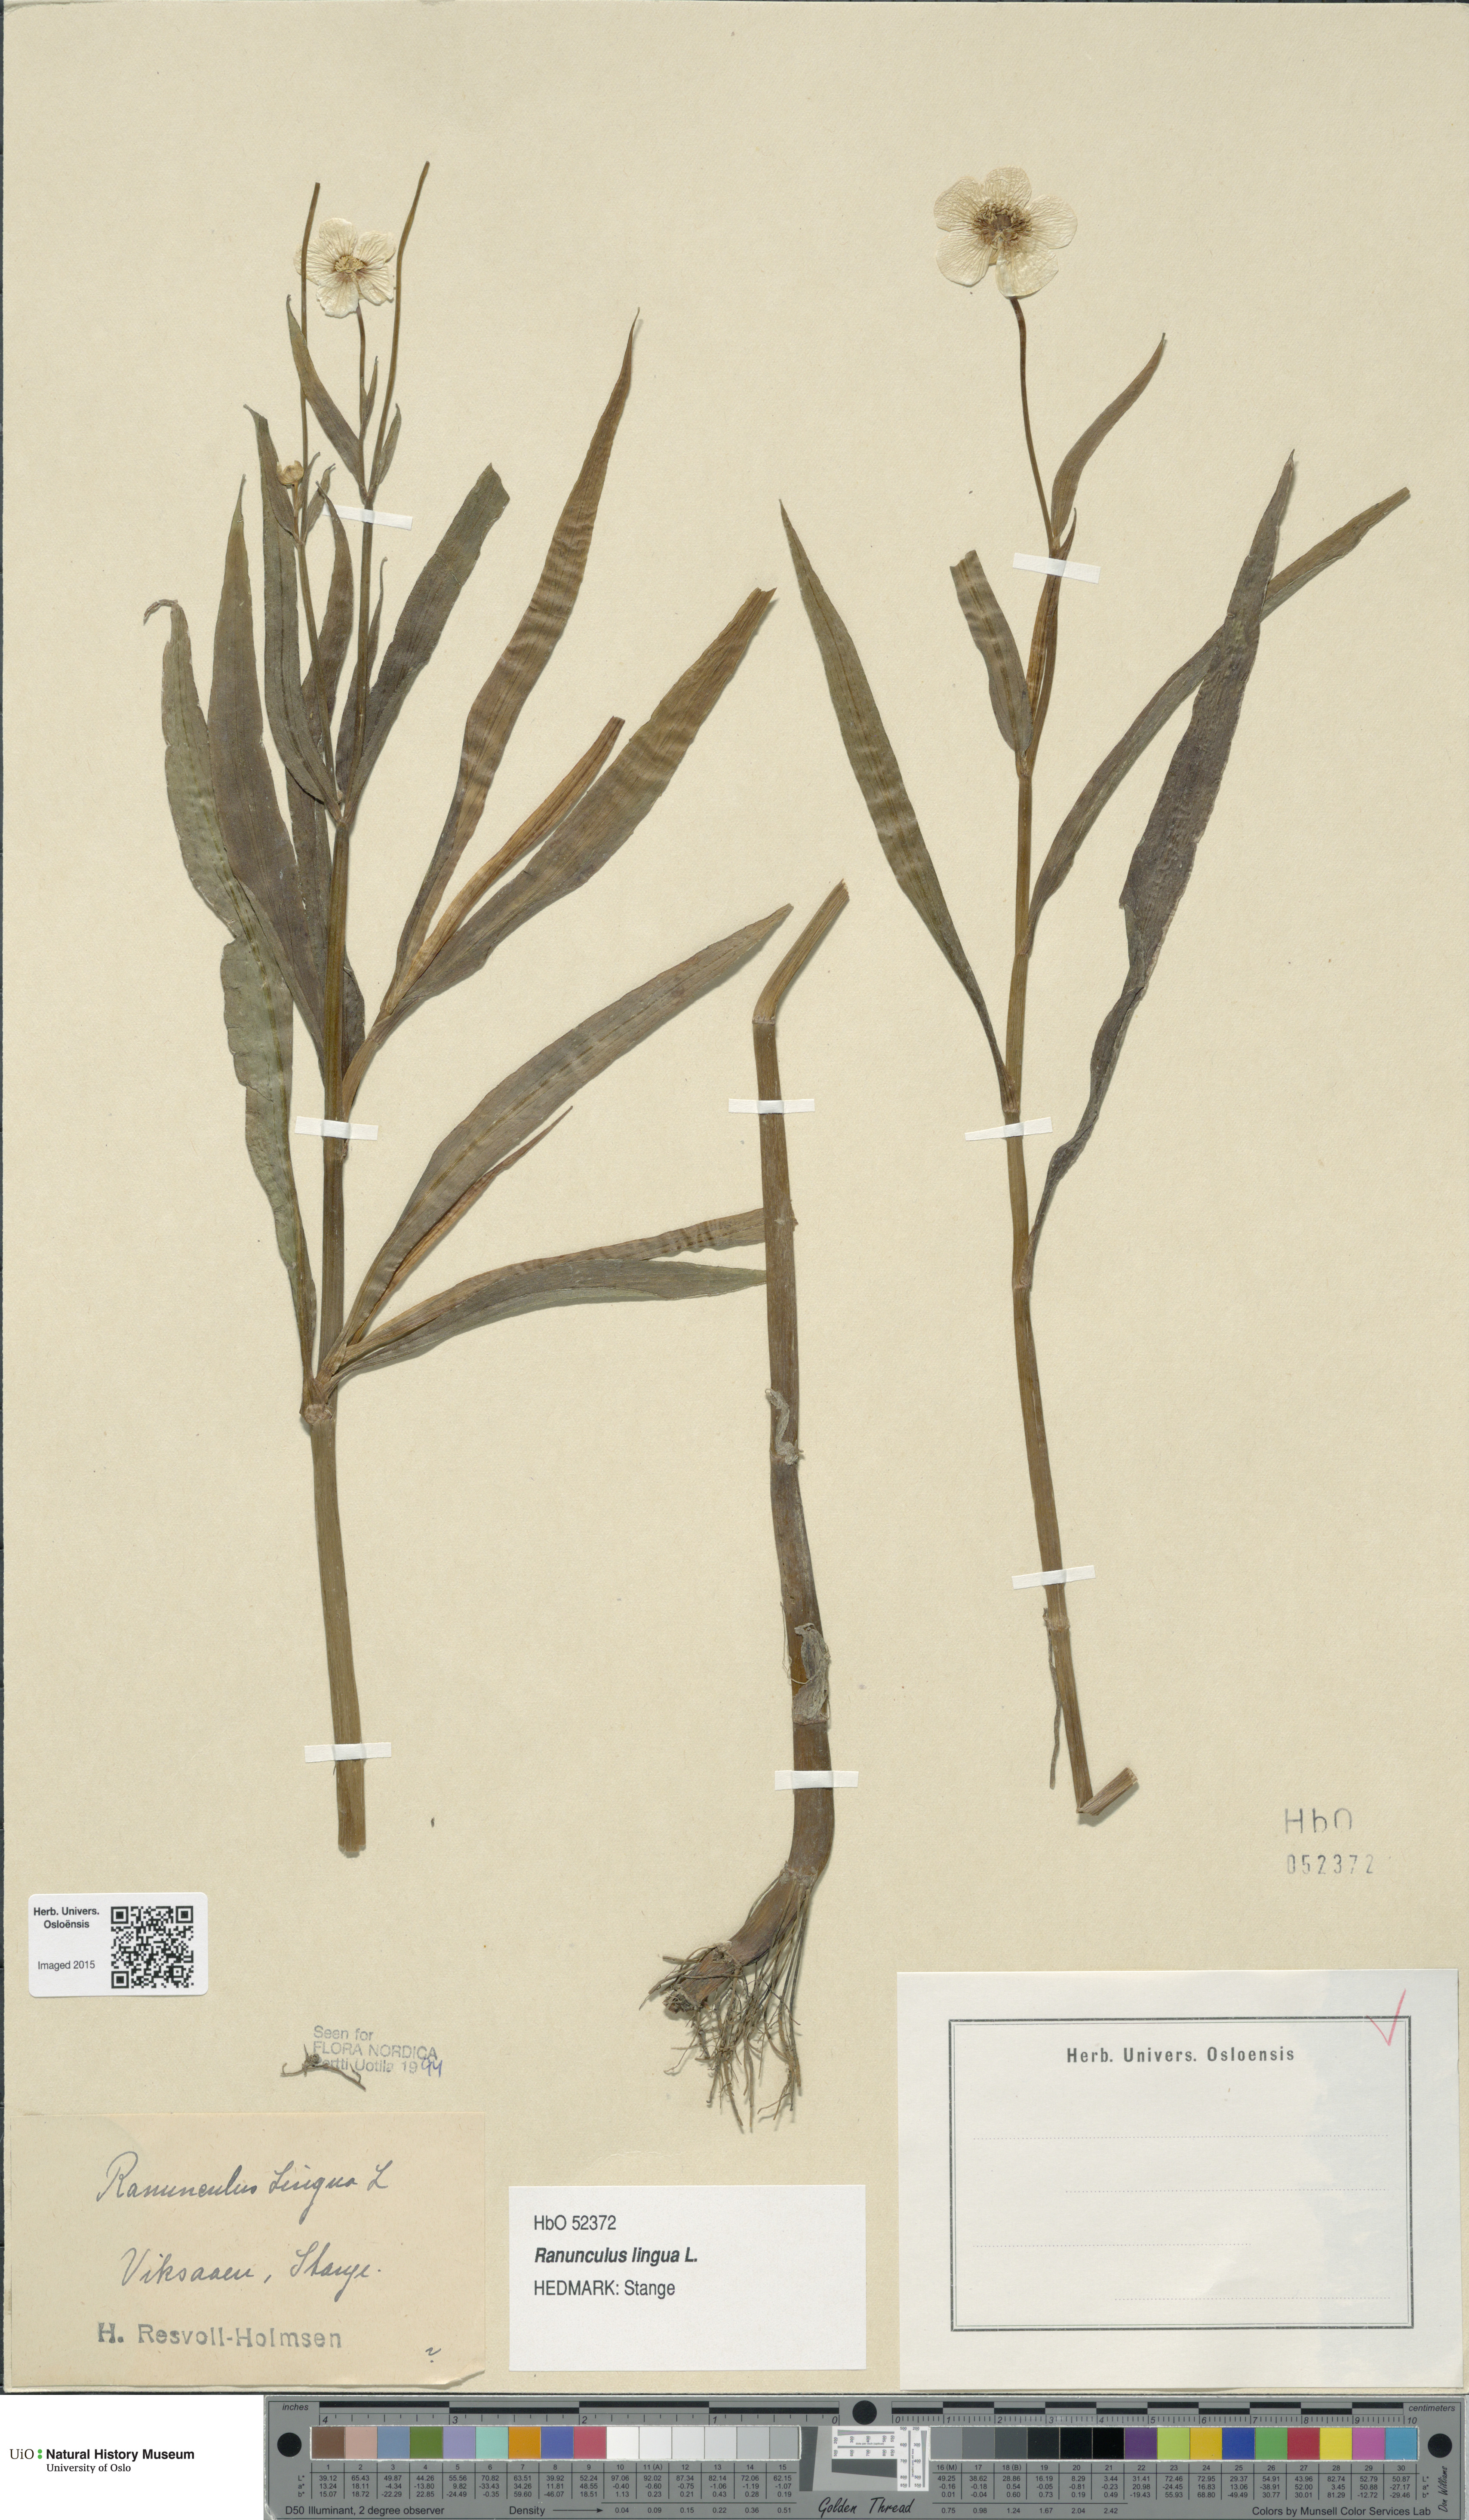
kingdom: Plantae
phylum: Tracheophyta
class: Magnoliopsida
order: Ranunculales
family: Ranunculaceae
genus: Ranunculus
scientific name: Ranunculus lingua
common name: Greater spearwort
